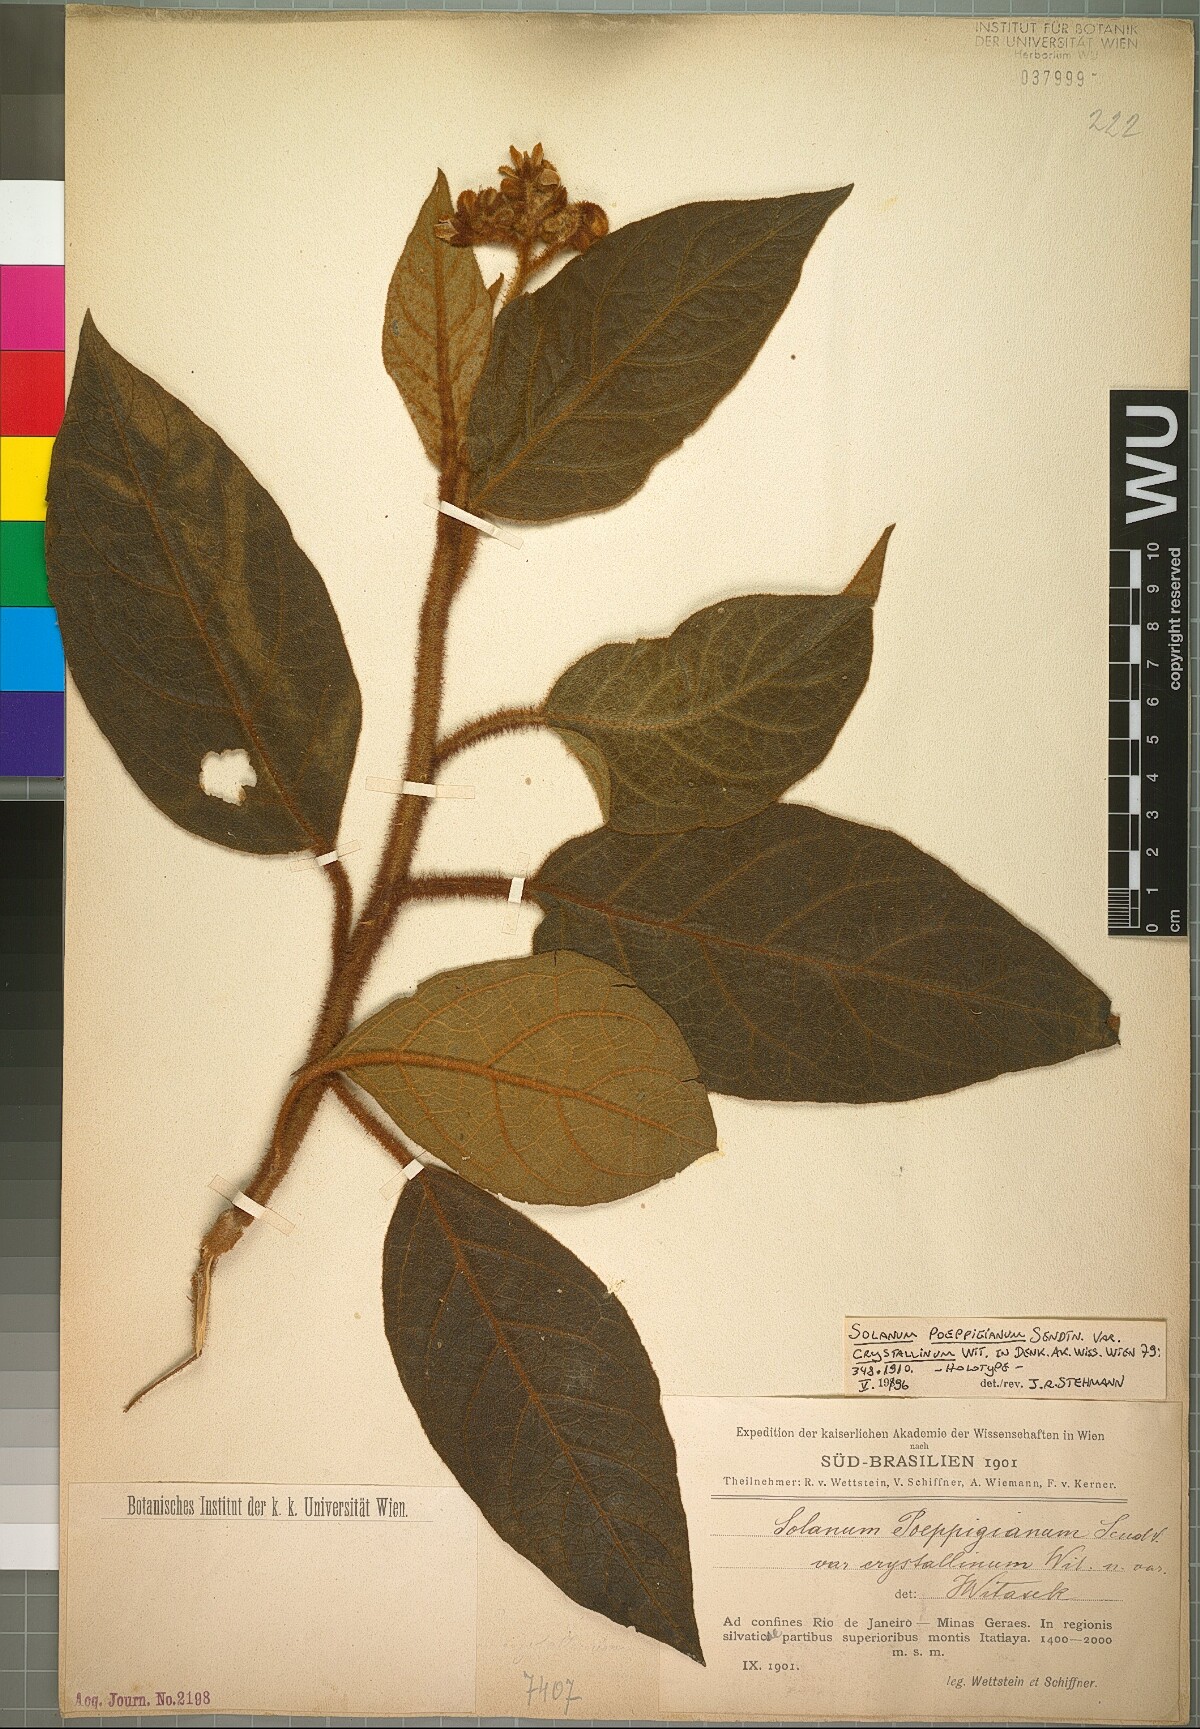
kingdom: Plantae
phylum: Tracheophyta
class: Magnoliopsida
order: Solanales
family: Solanaceae
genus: Solanum
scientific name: Solanum velleum
